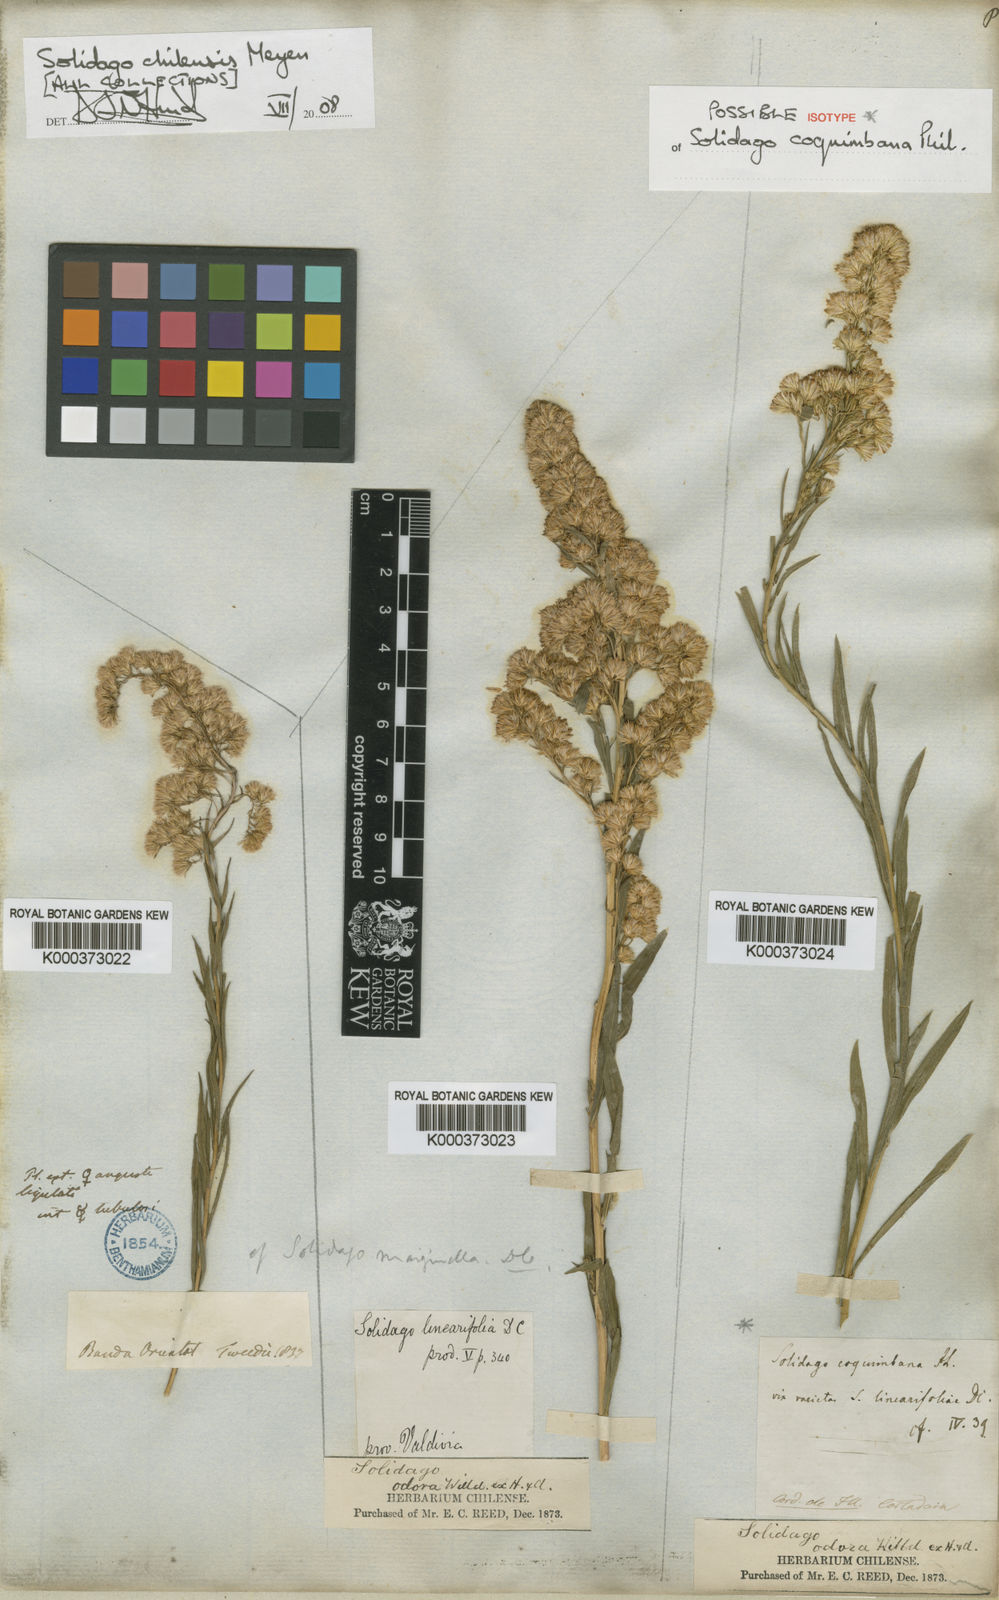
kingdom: Plantae
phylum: Tracheophyta
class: Magnoliopsida
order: Asterales
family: Asteraceae
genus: Solidago
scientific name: Solidago chilensis
